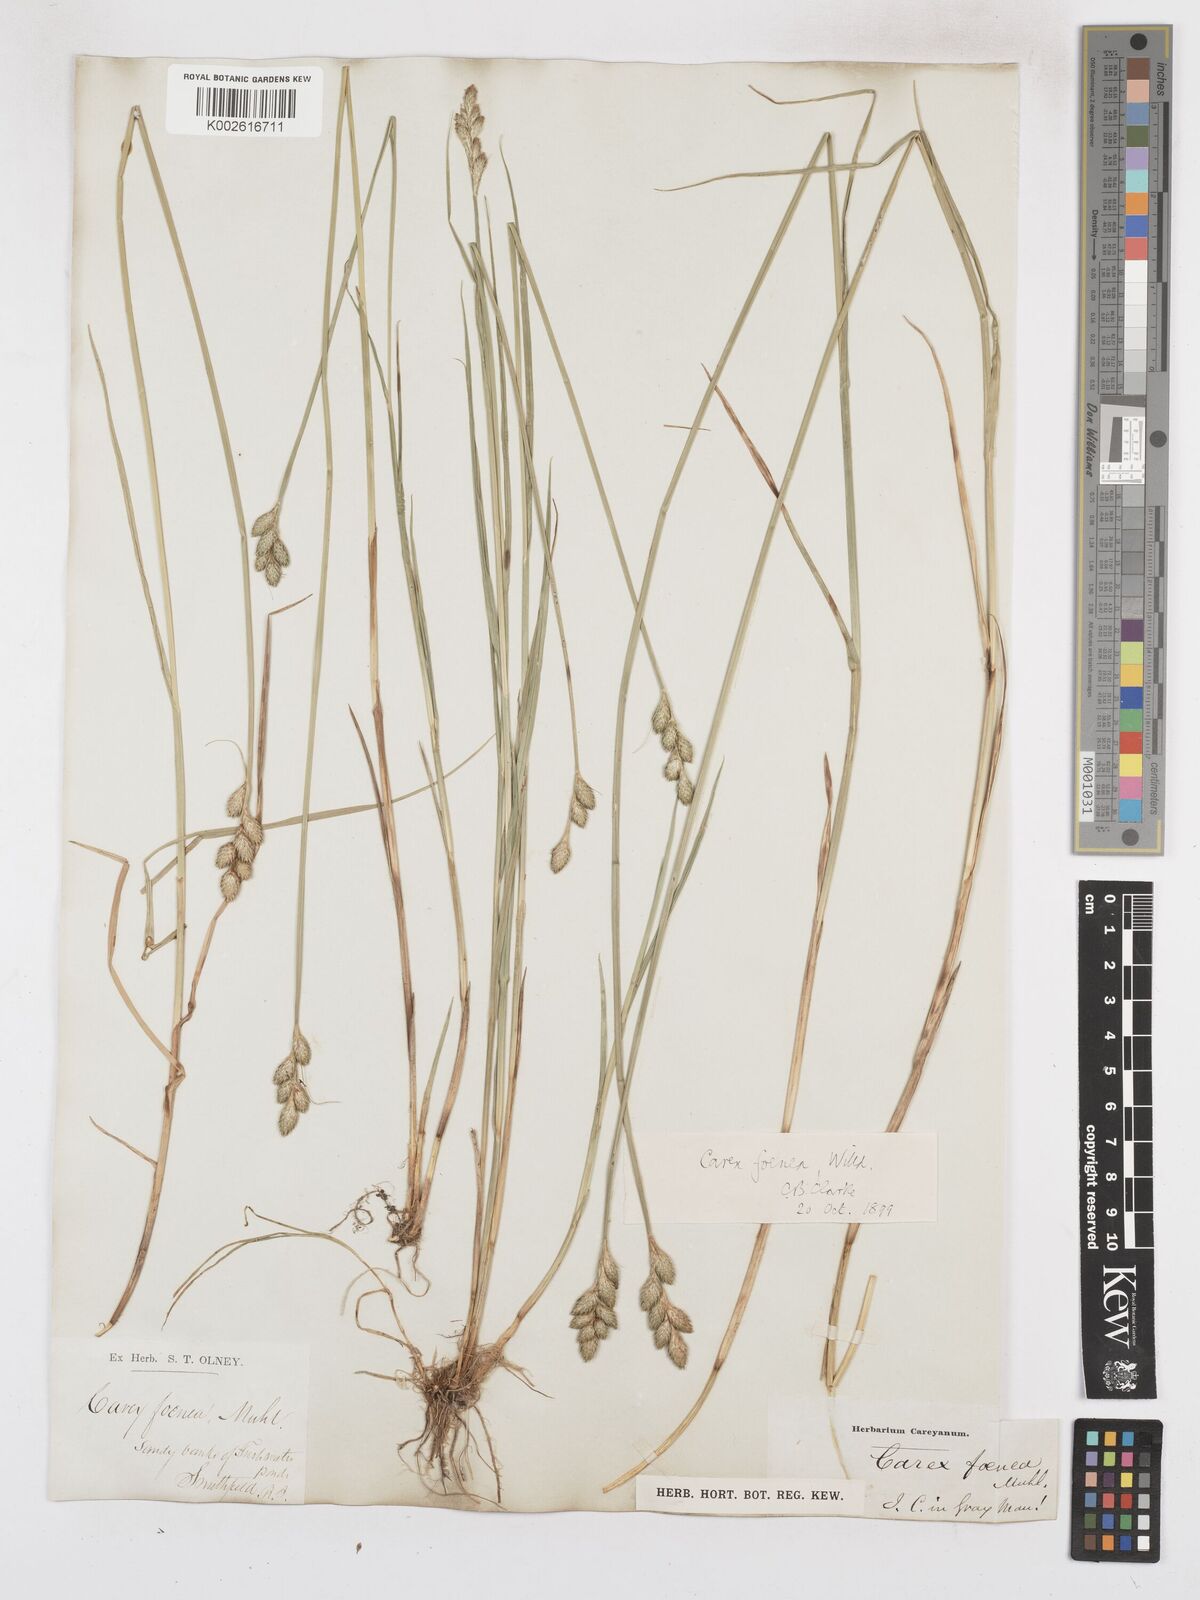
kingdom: Plantae
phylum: Tracheophyta
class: Liliopsida
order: Poales
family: Cyperaceae
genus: Carex
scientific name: Carex argyrantha
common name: Silvery-flowered sedge
